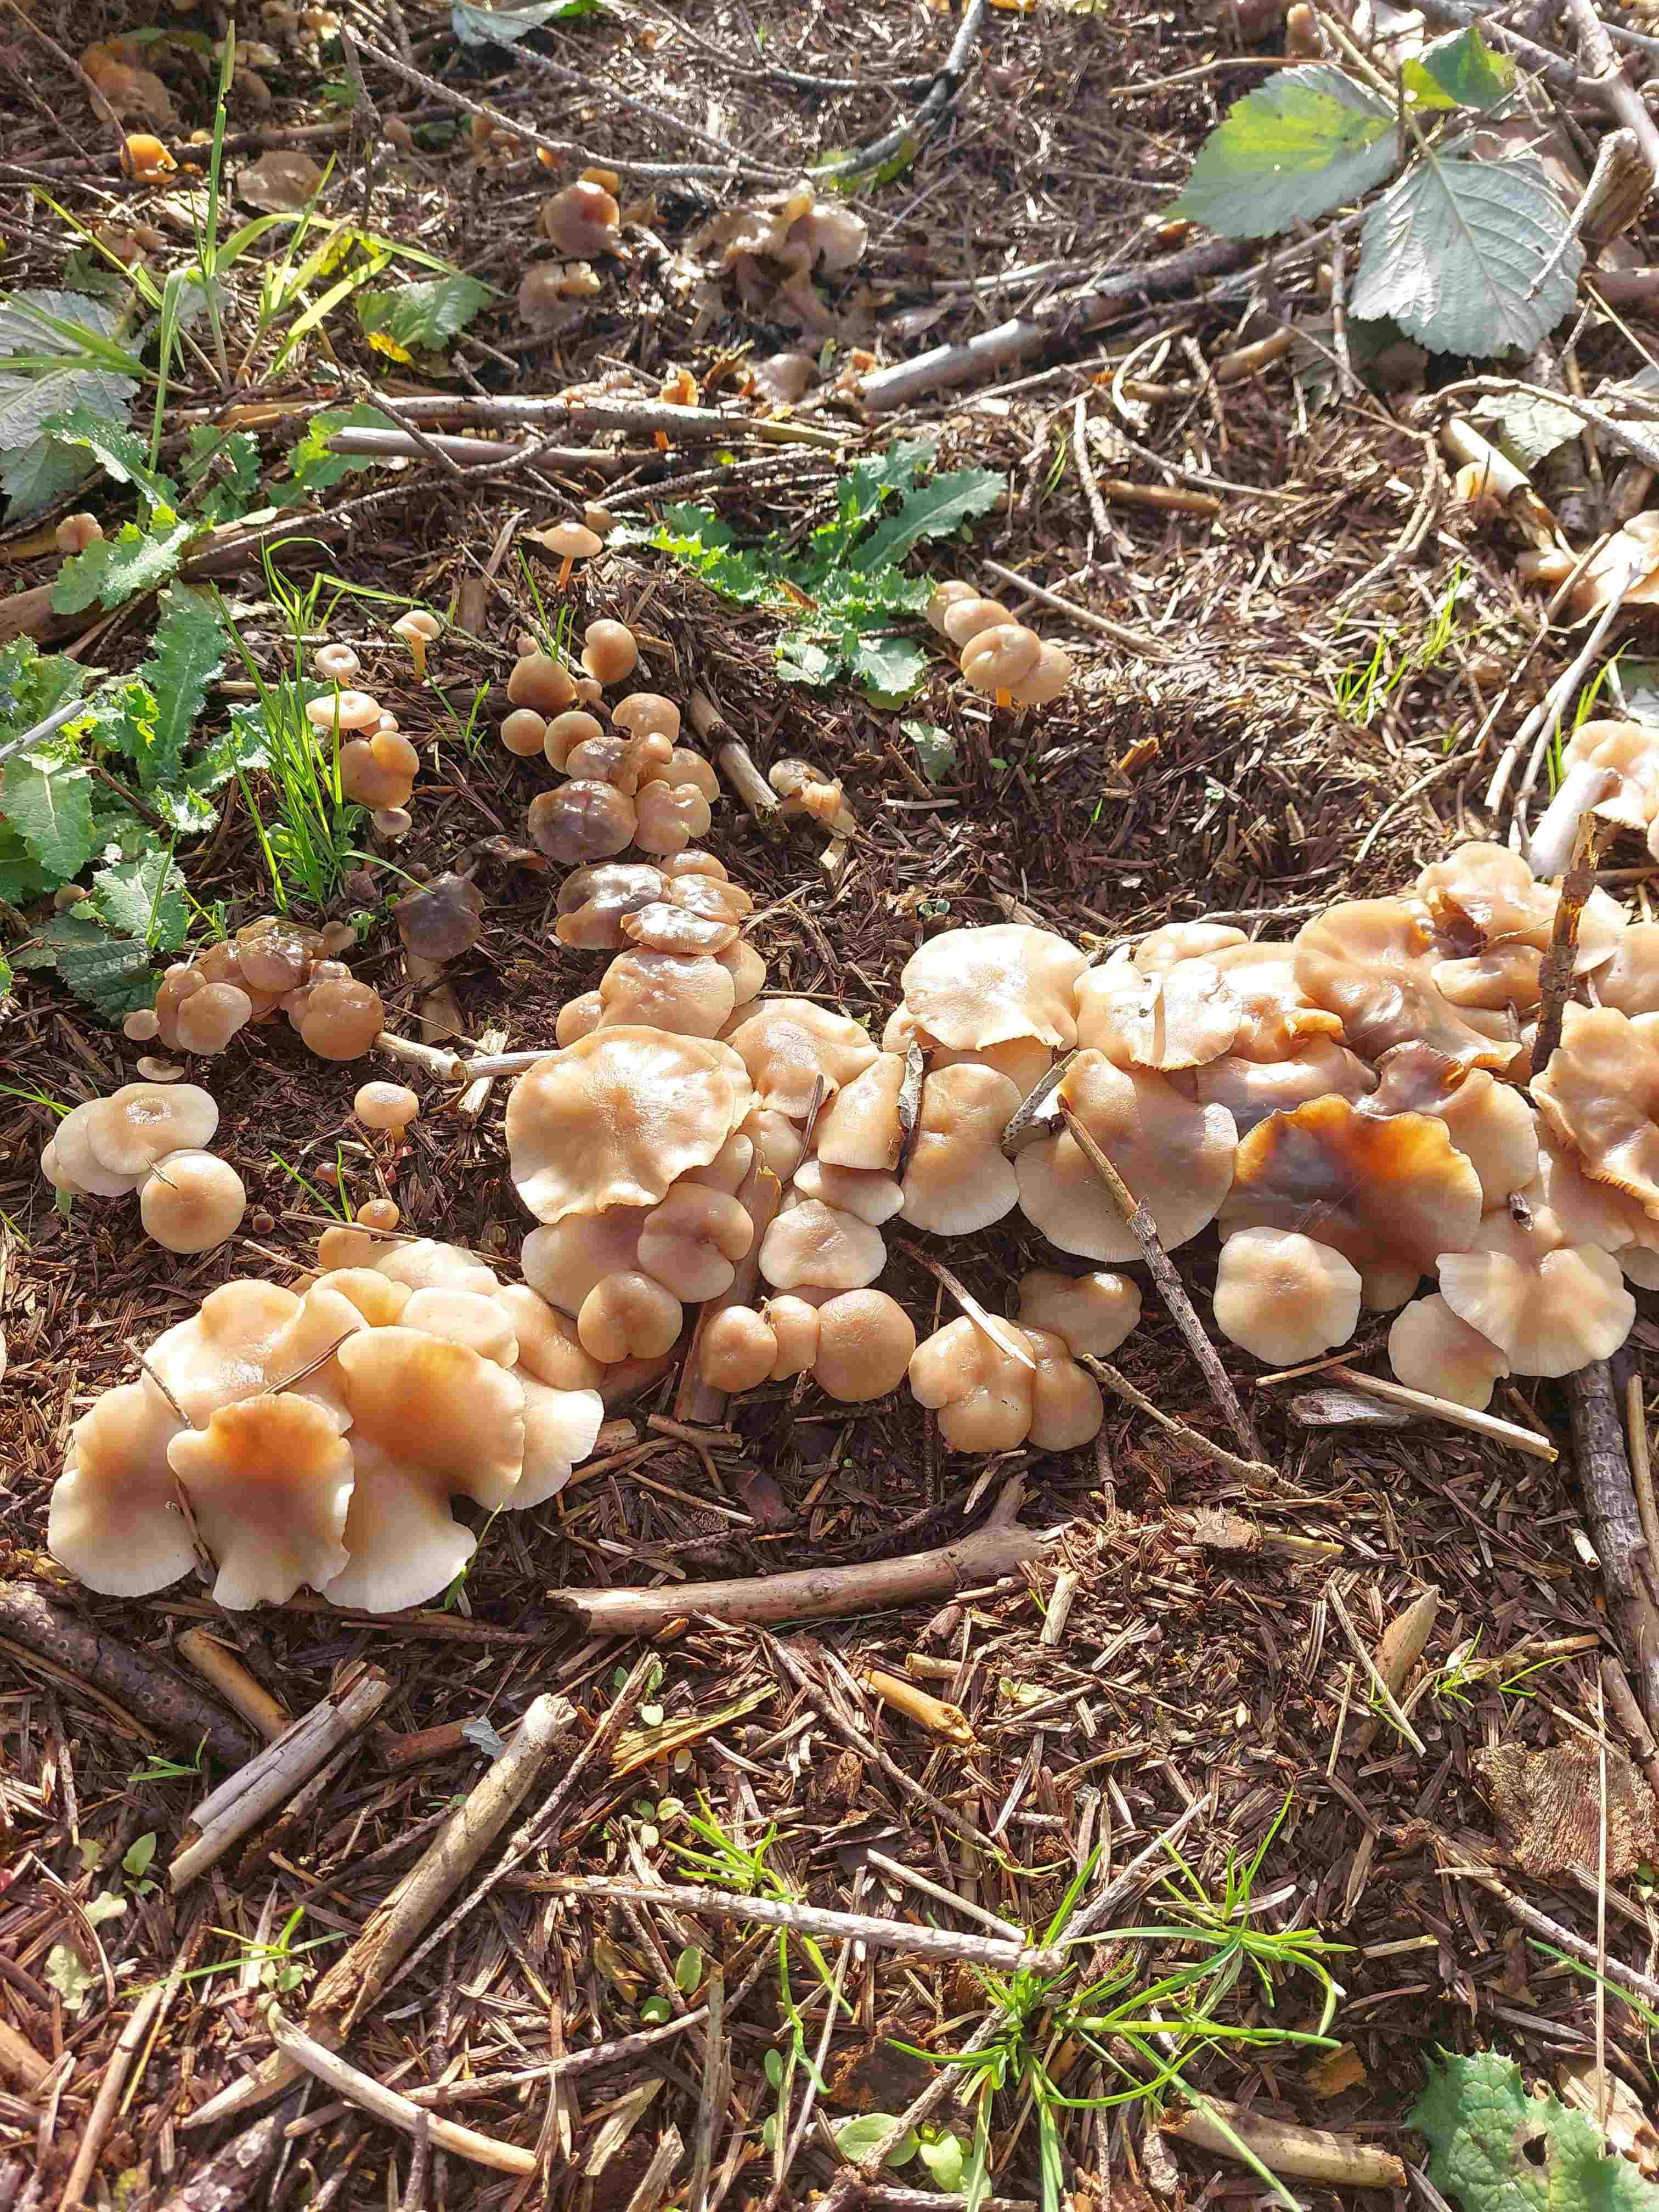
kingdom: Fungi
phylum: Basidiomycota
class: Agaricomycetes
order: Agaricales
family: Omphalotaceae
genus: Collybiopsis
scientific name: Collybiopsis confluens
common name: knippe-fladhat
